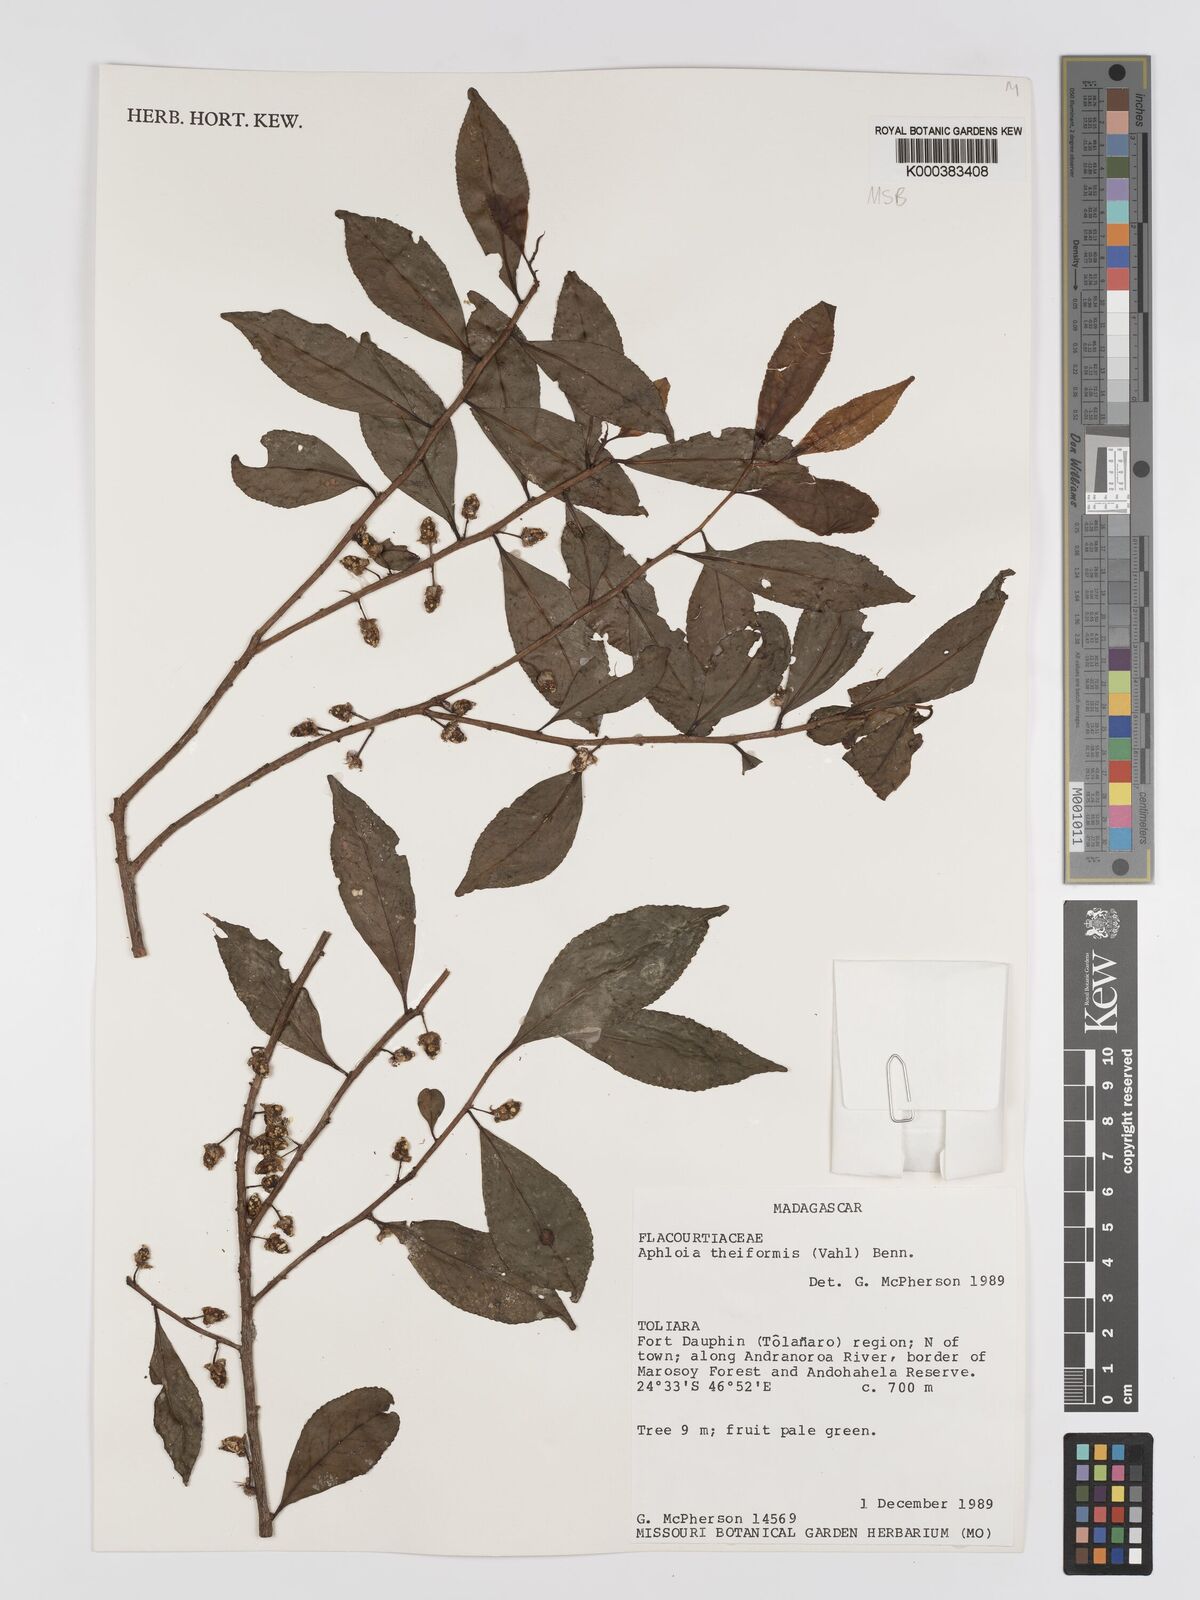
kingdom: Plantae
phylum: Tracheophyta
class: Magnoliopsida
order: Crossosomatales
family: Aphloiaceae
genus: Aphloia
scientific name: Aphloia theiformis
